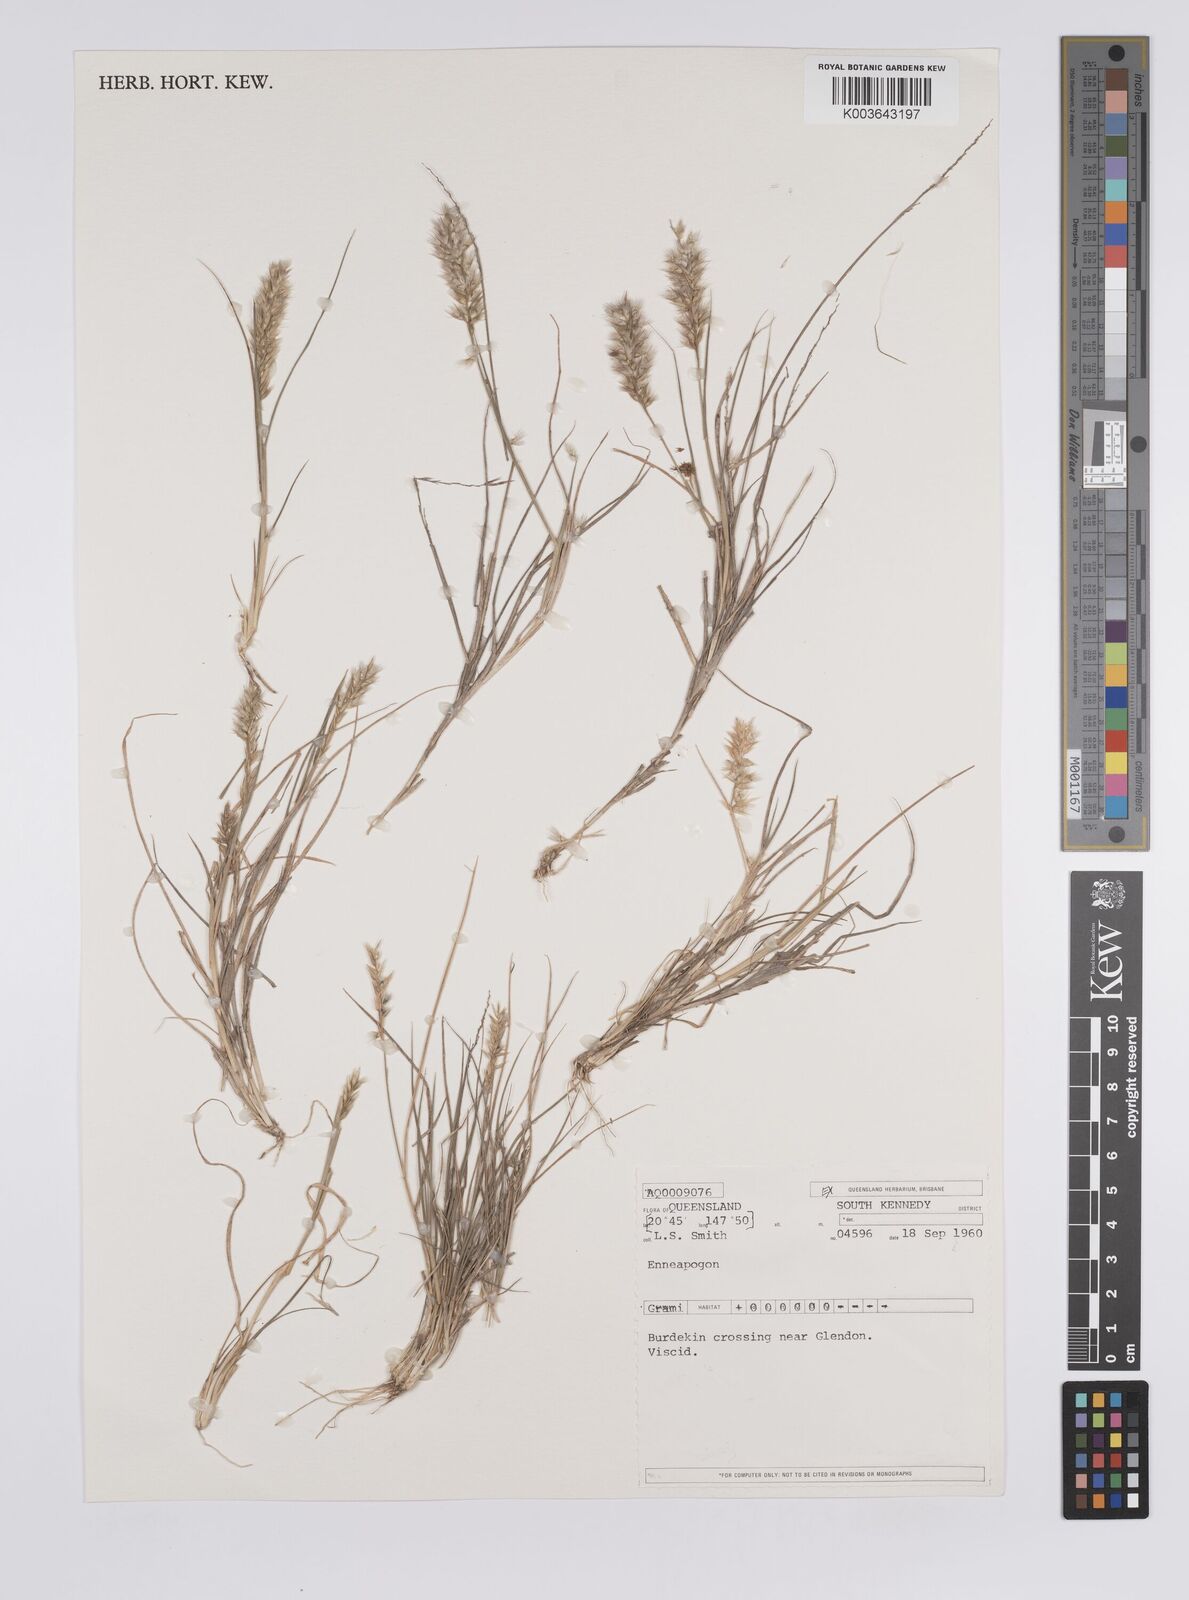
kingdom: Plantae
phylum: Tracheophyta
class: Liliopsida
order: Poales
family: Poaceae
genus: Enneapogon
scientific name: Enneapogon
